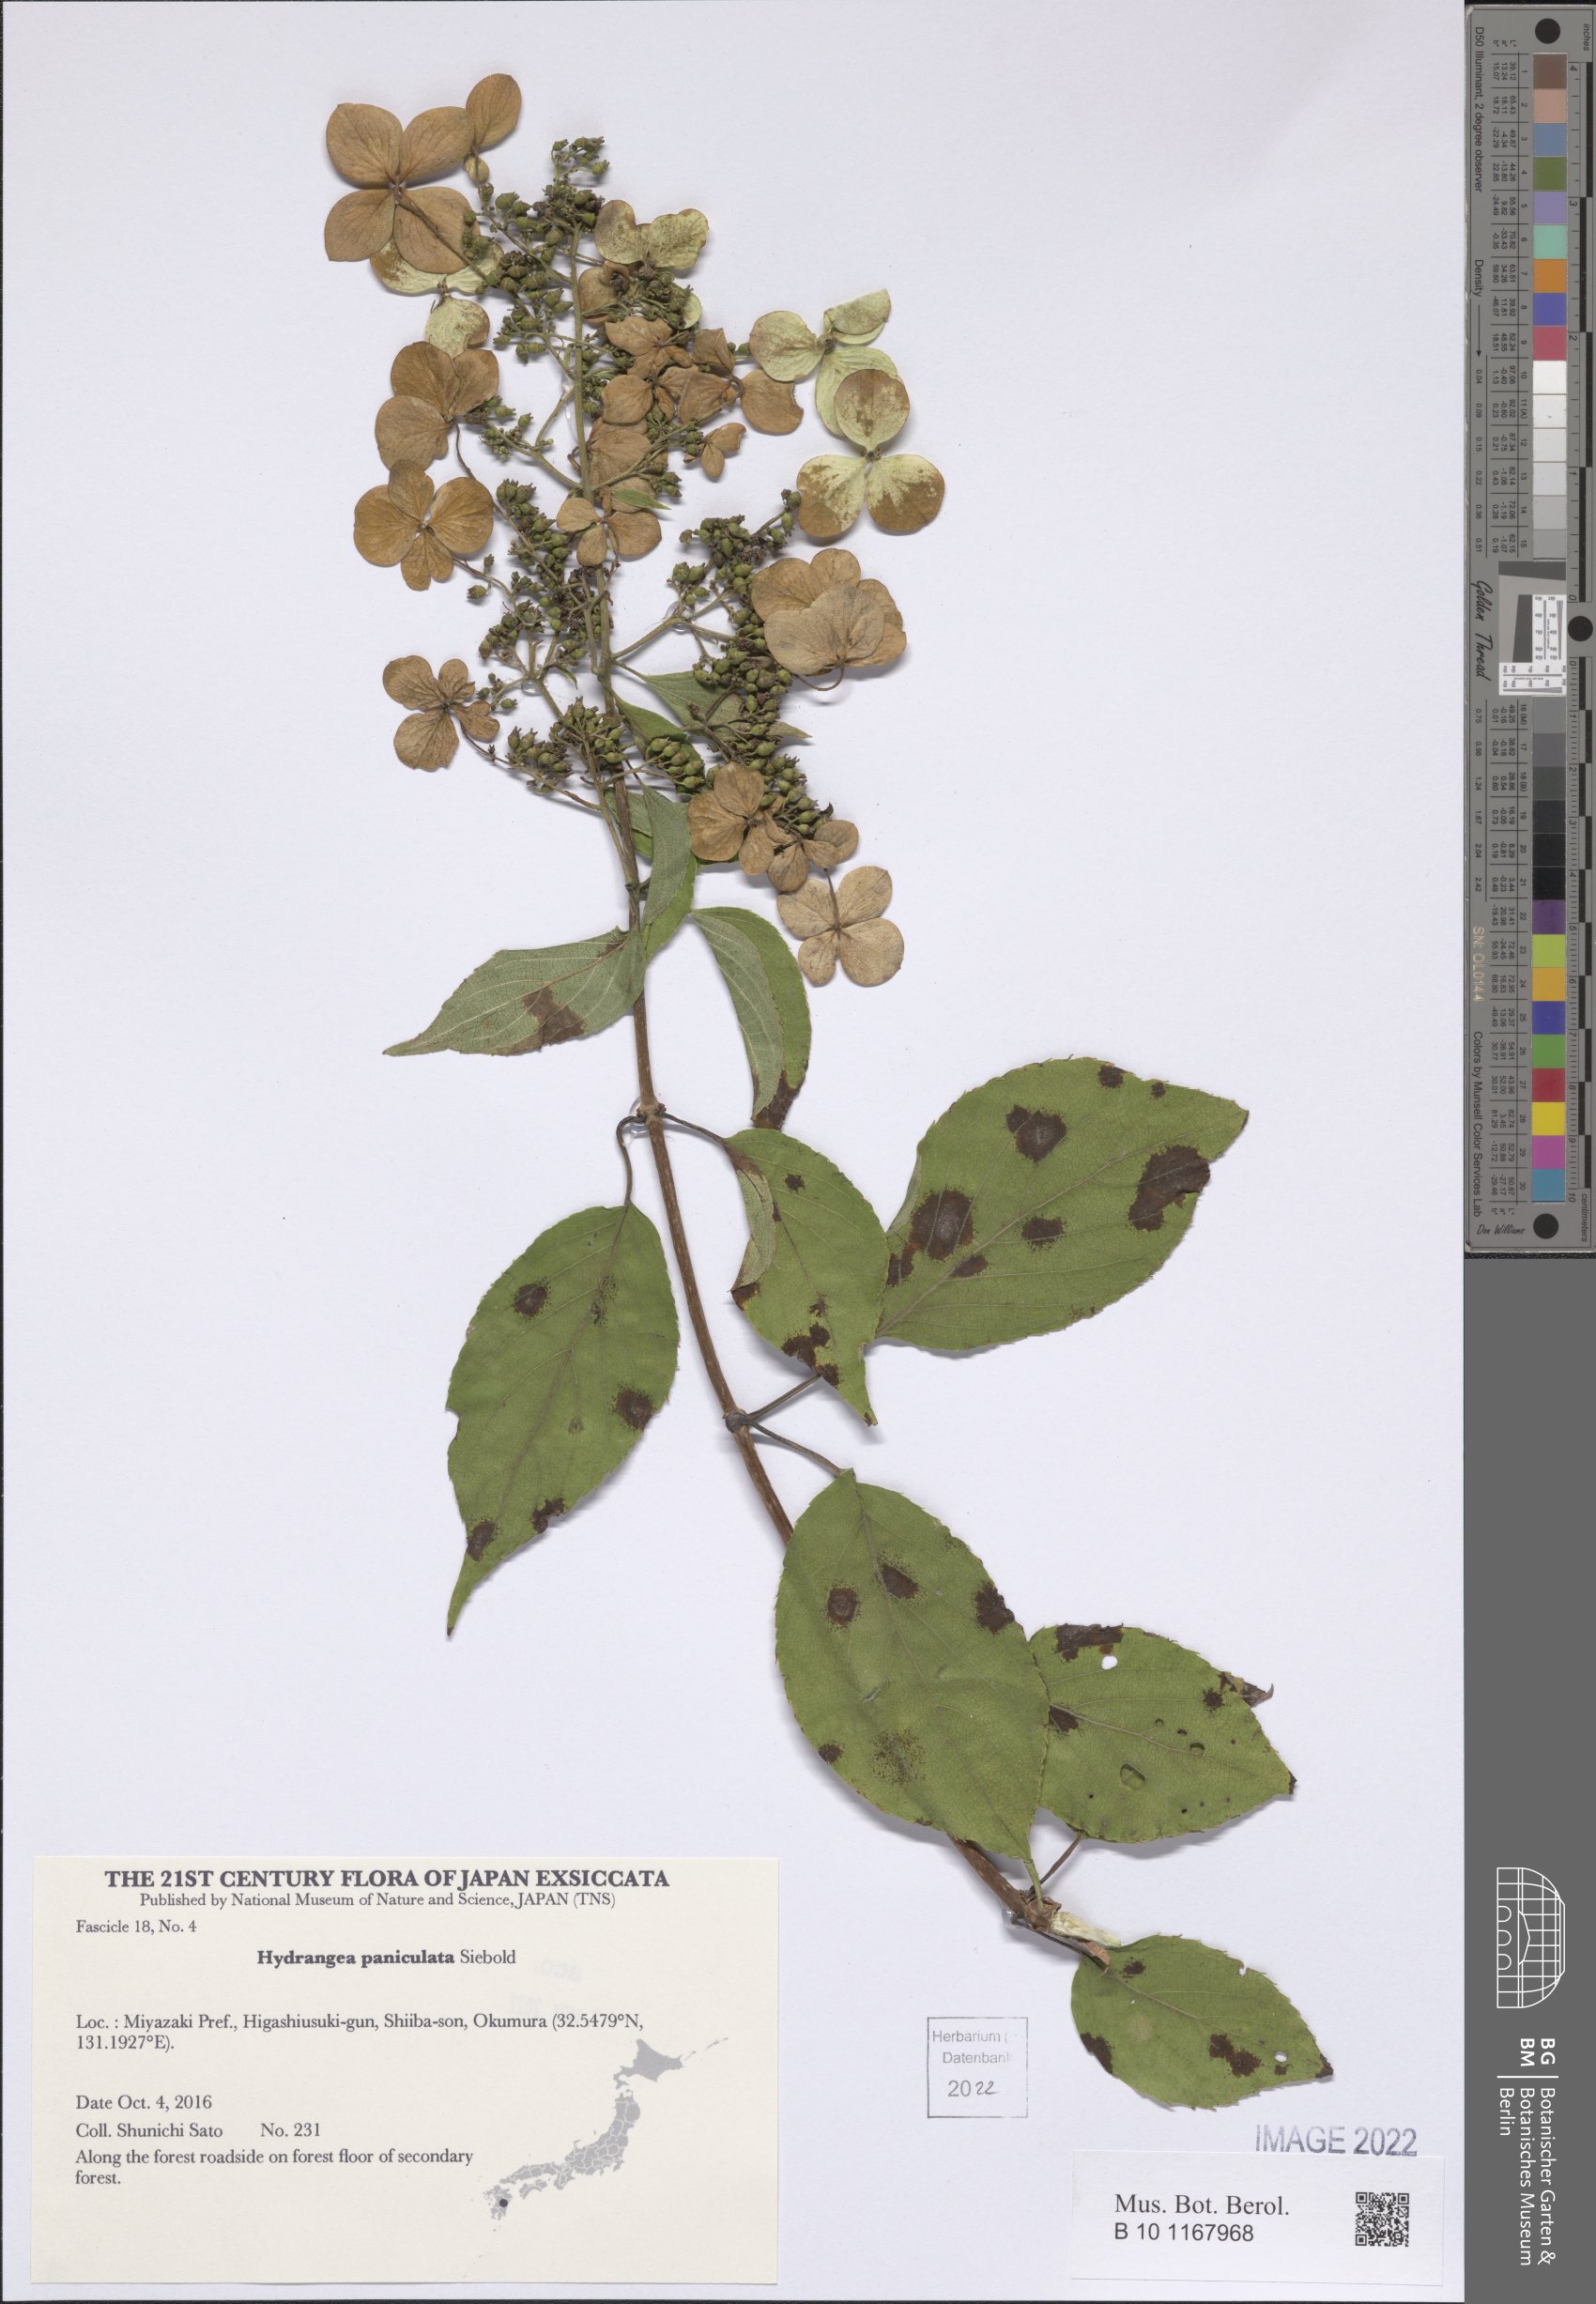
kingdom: Plantae
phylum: Tracheophyta
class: Magnoliopsida
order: Cornales
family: Hydrangeaceae
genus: Hydrangea
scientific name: Hydrangea paniculata
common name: Panicled hydrangea
